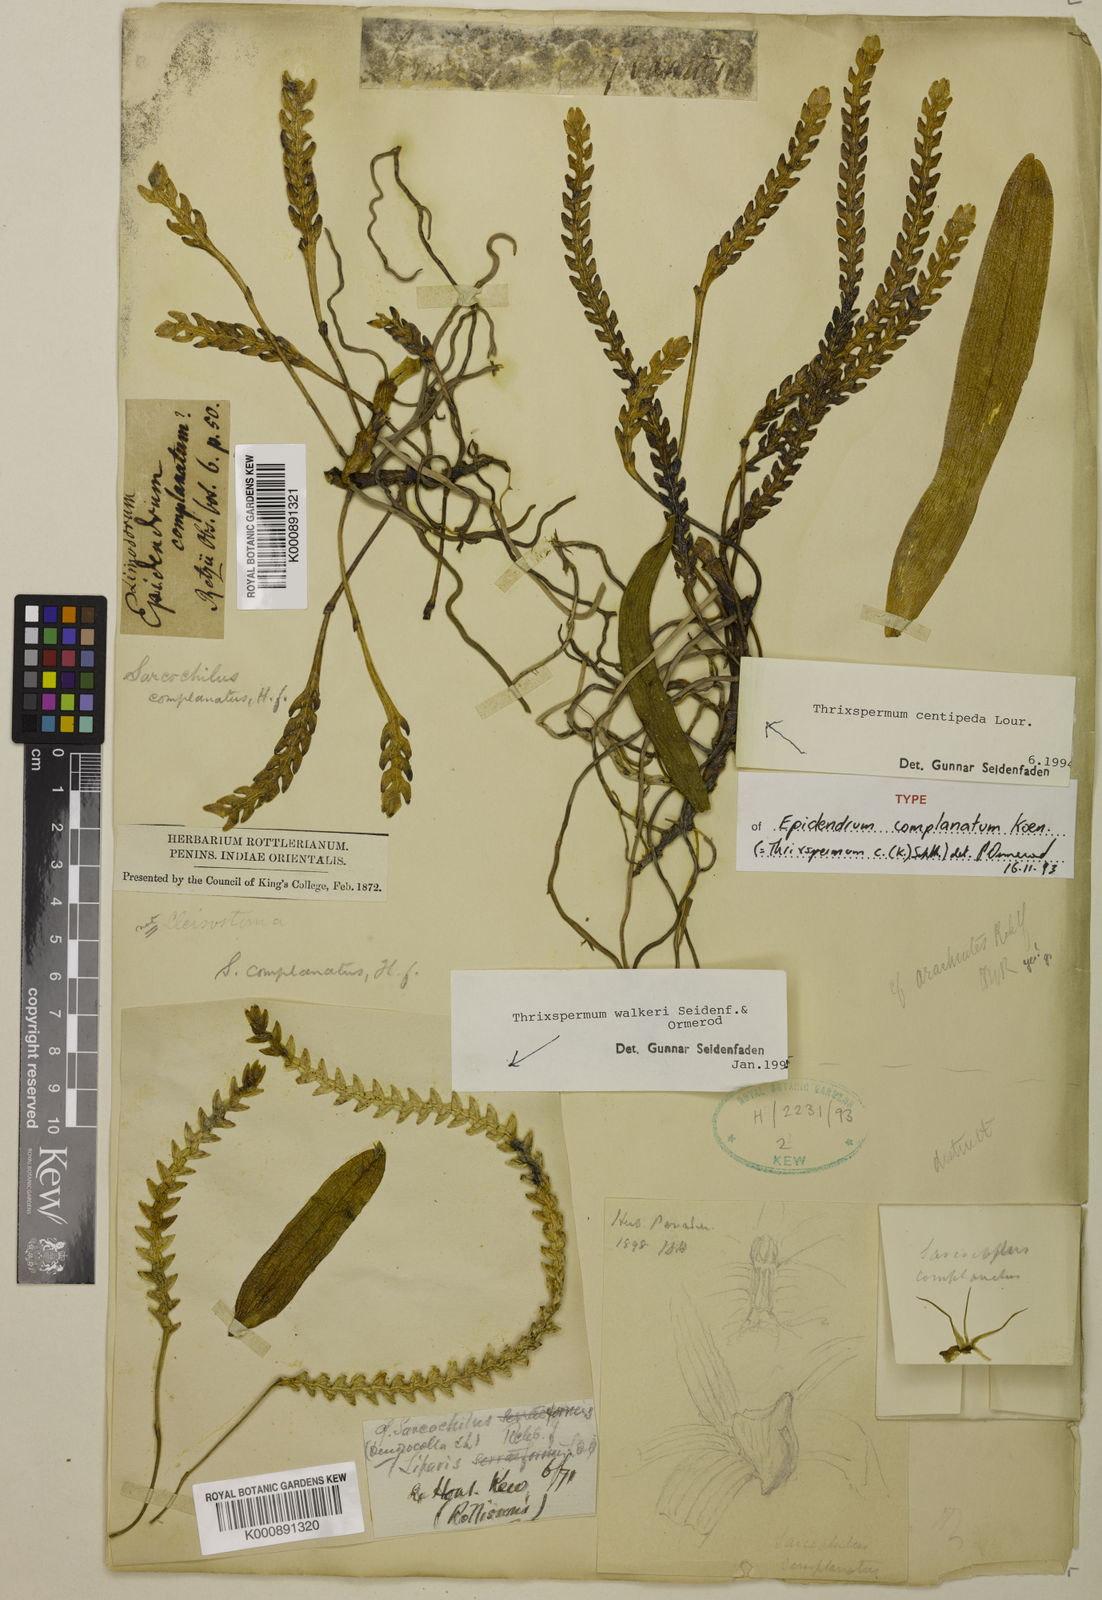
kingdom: Plantae
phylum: Tracheophyta
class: Liliopsida
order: Asparagales
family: Orchidaceae
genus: Thrixspermum
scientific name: Thrixspermum complanatum
